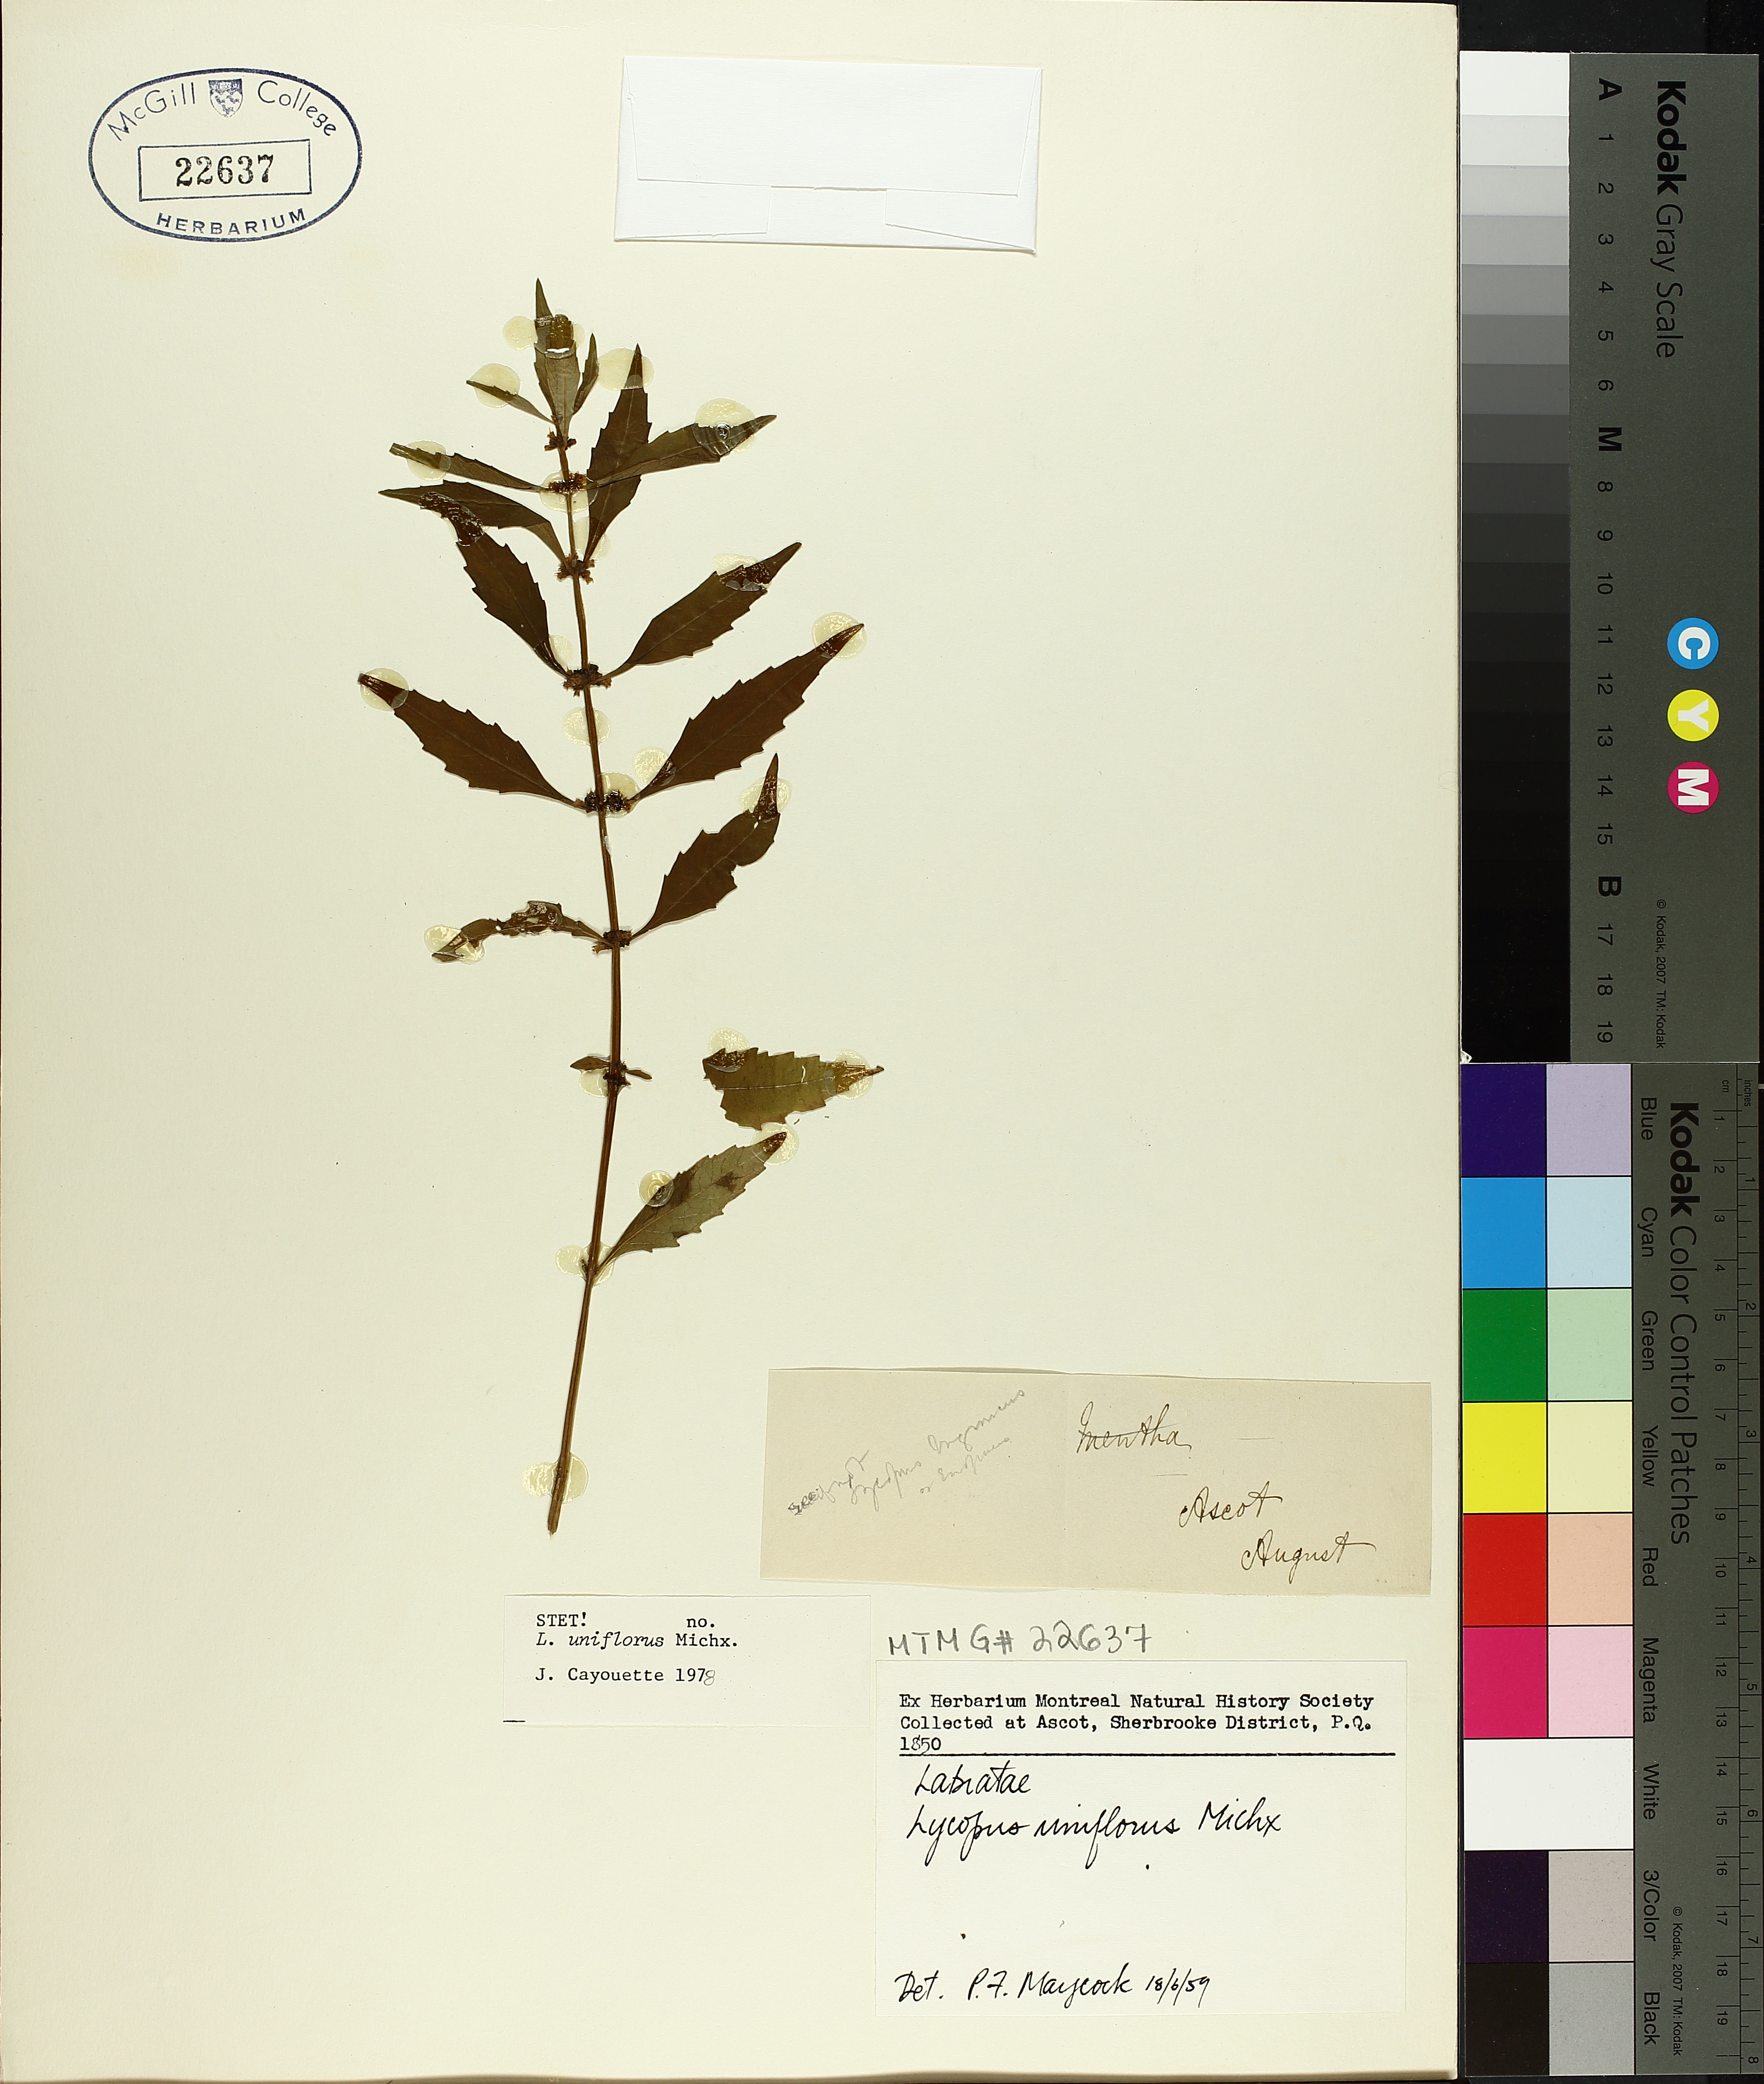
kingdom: Plantae
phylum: Tracheophyta
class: Magnoliopsida
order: Lamiales
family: Lamiaceae
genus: Lycopus
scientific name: Lycopus uniflorus
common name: Northern bugleweed
